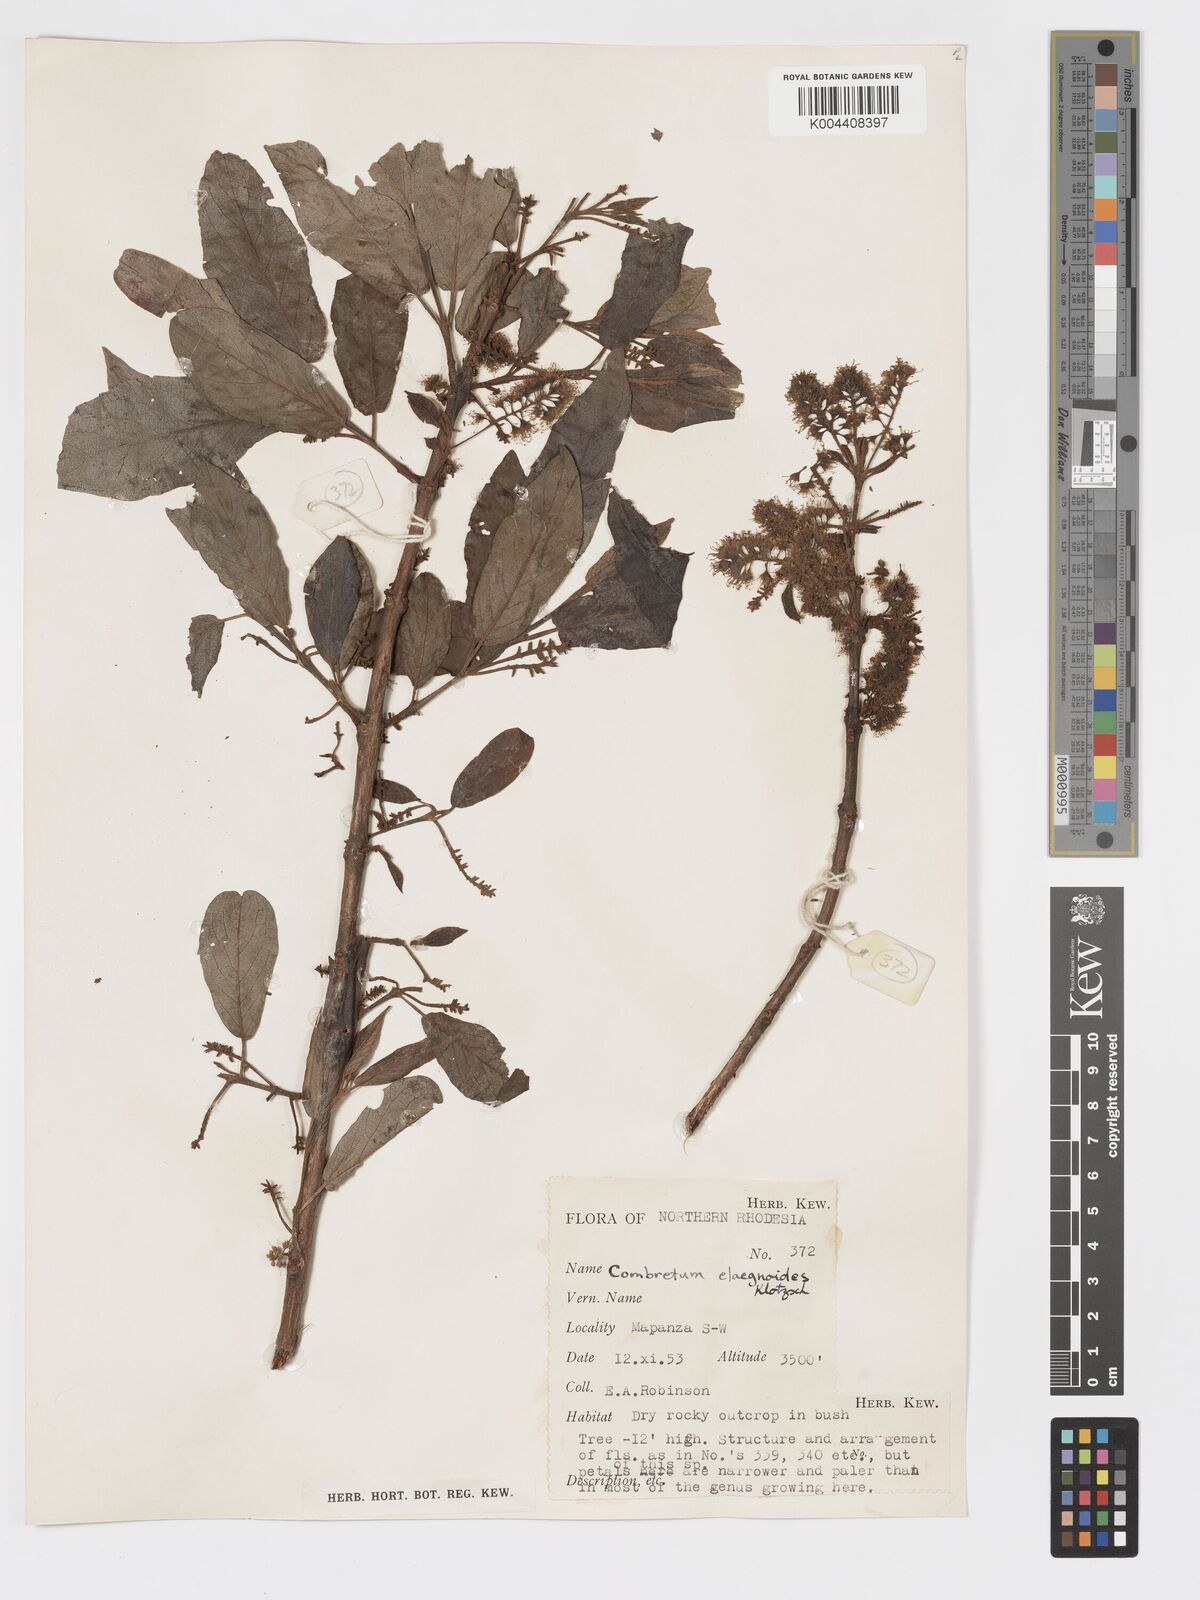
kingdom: Plantae
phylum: Tracheophyta
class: Magnoliopsida
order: Myrtales
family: Combretaceae
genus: Combretum
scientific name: Combretum elaeagnoides
